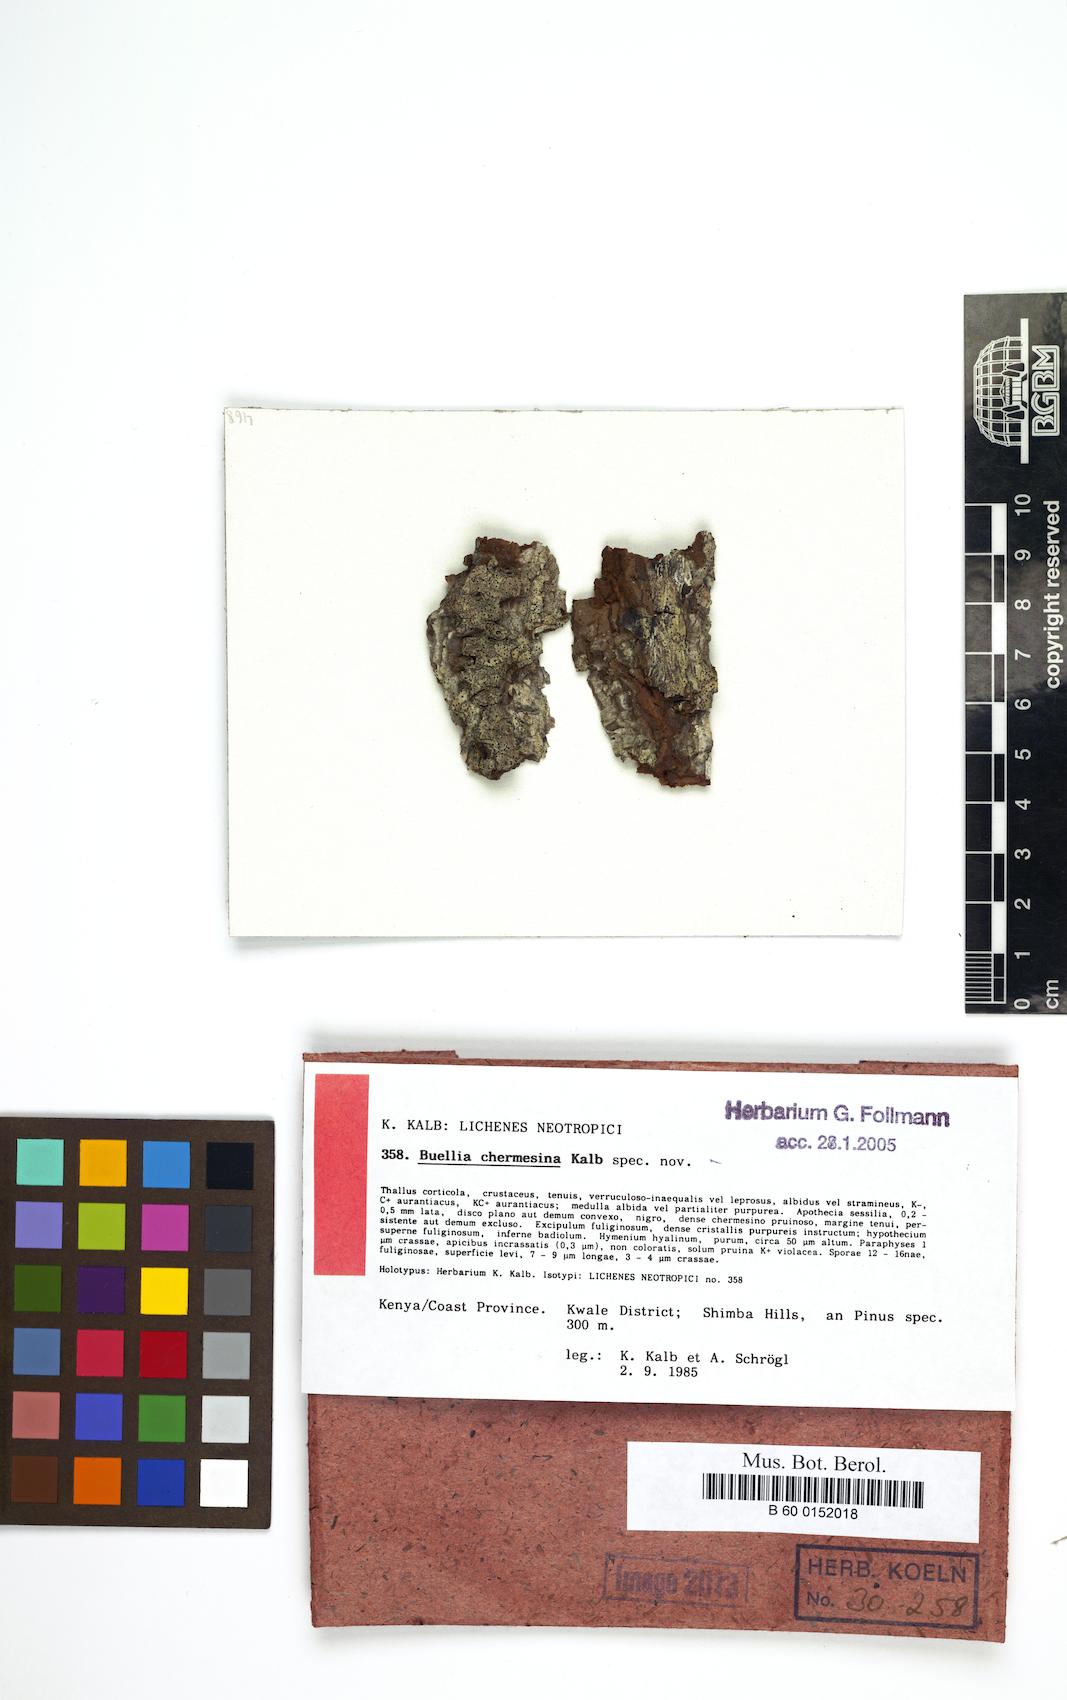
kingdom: Fungi
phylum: Ascomycota
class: Lecanoromycetes
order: Caliciales
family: Caliciaceae
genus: Gassicurtia
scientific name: Gassicurtia chermesina
